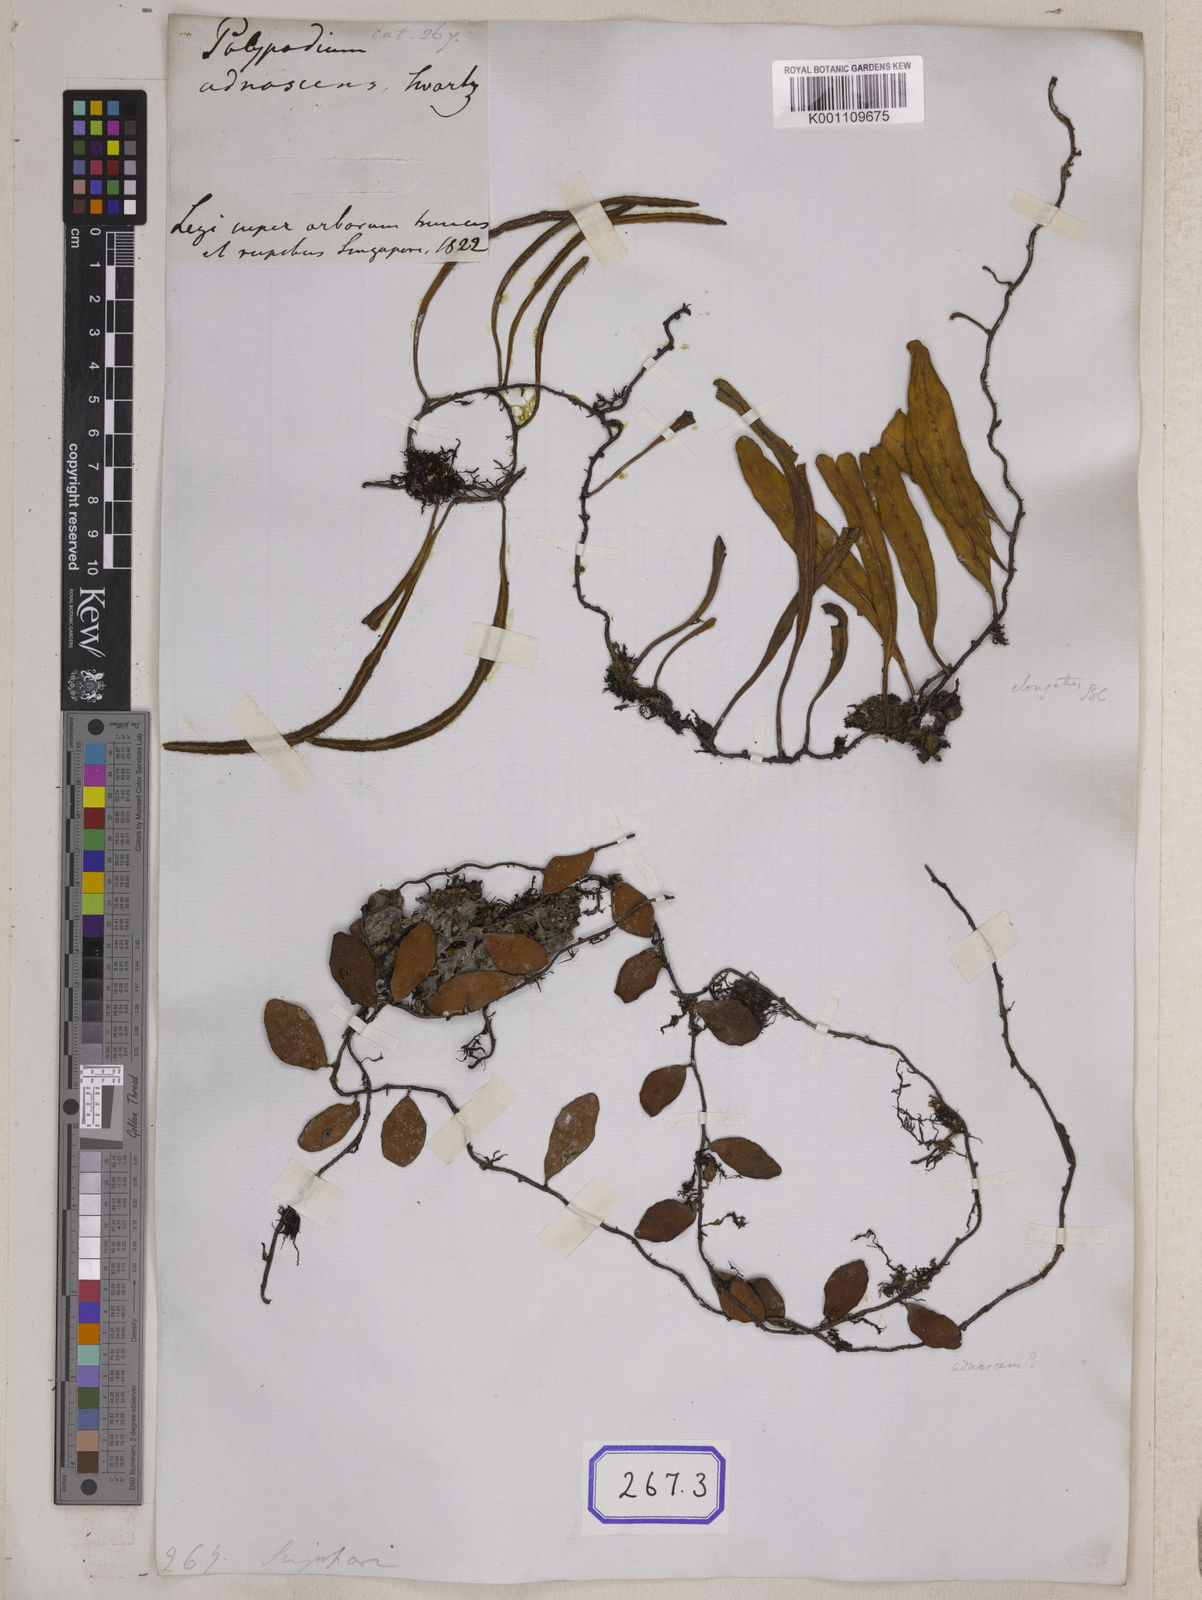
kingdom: Plantae
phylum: Tracheophyta
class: Polypodiopsida
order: Polypodiales
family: Polypodiaceae
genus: Polypodium
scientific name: Polypodium
